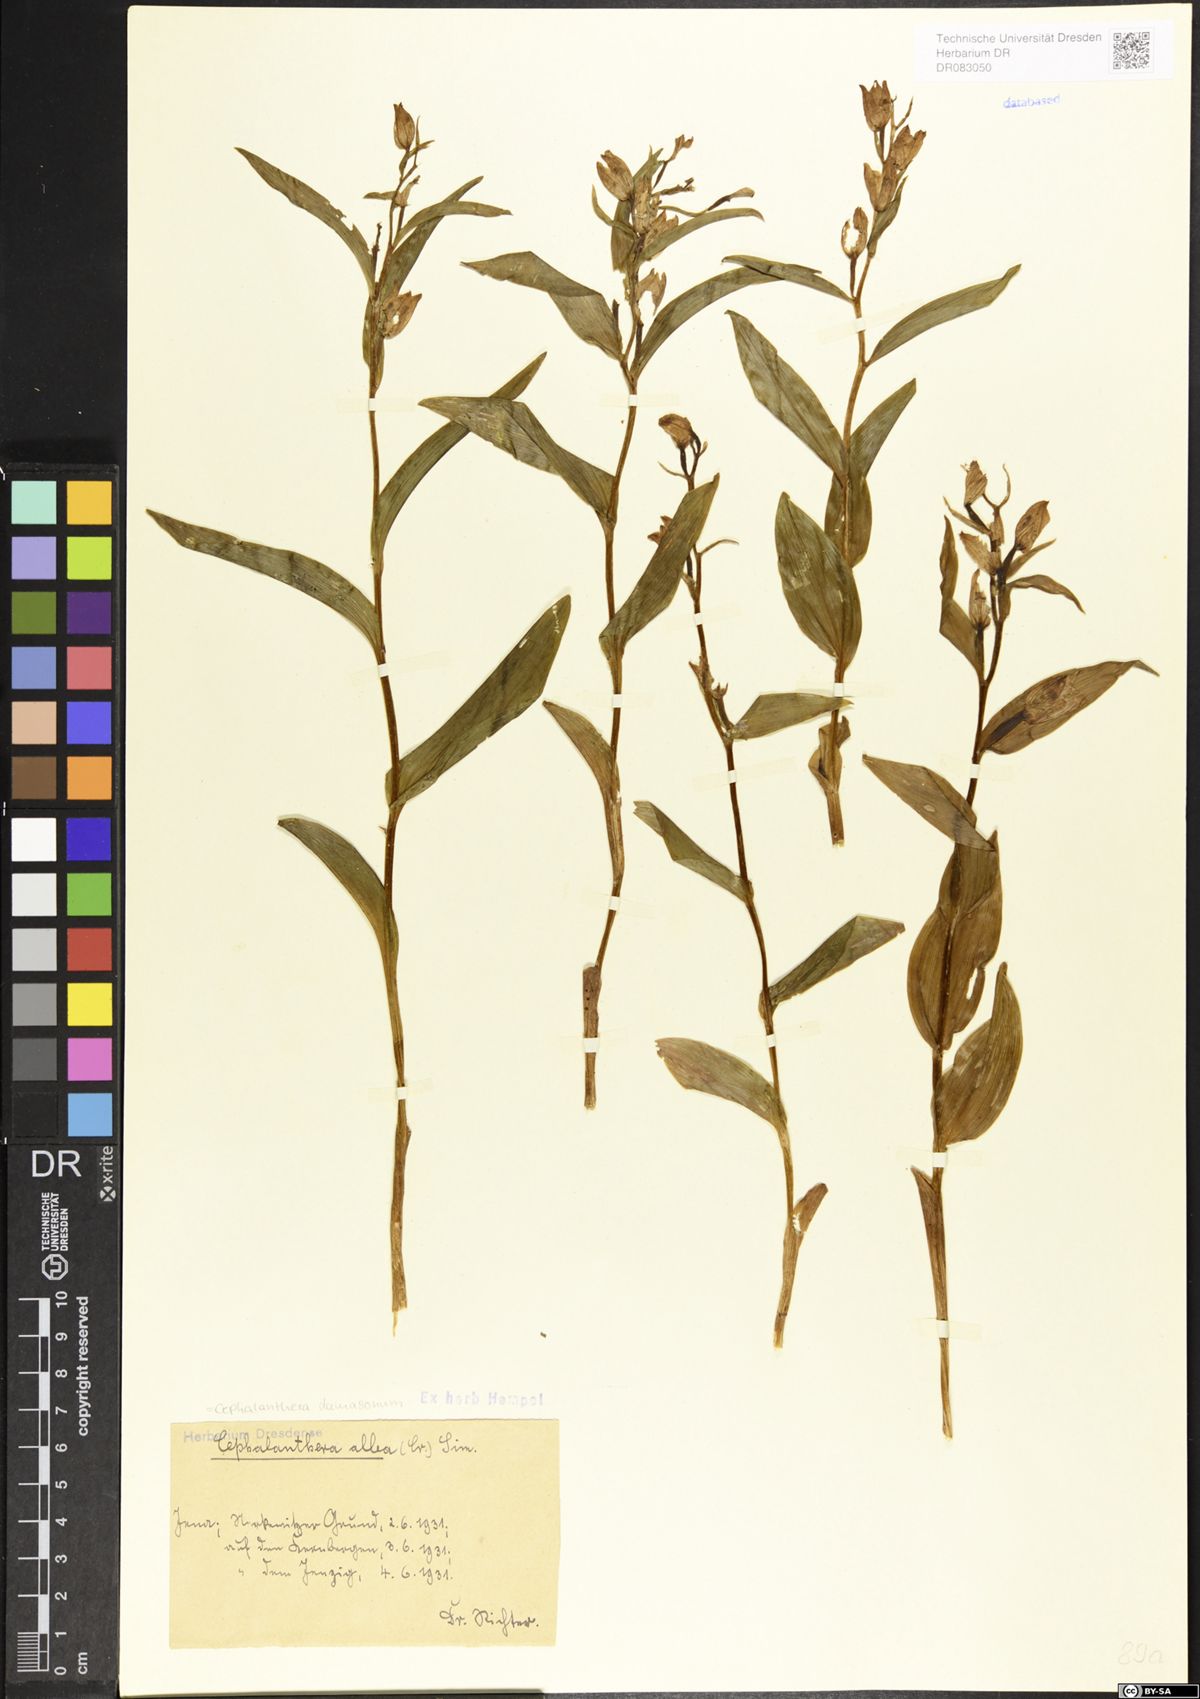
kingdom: Plantae
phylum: Tracheophyta
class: Liliopsida
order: Asparagales
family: Orchidaceae
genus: Cephalanthera
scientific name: Cephalanthera damasonium
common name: White helleborine
